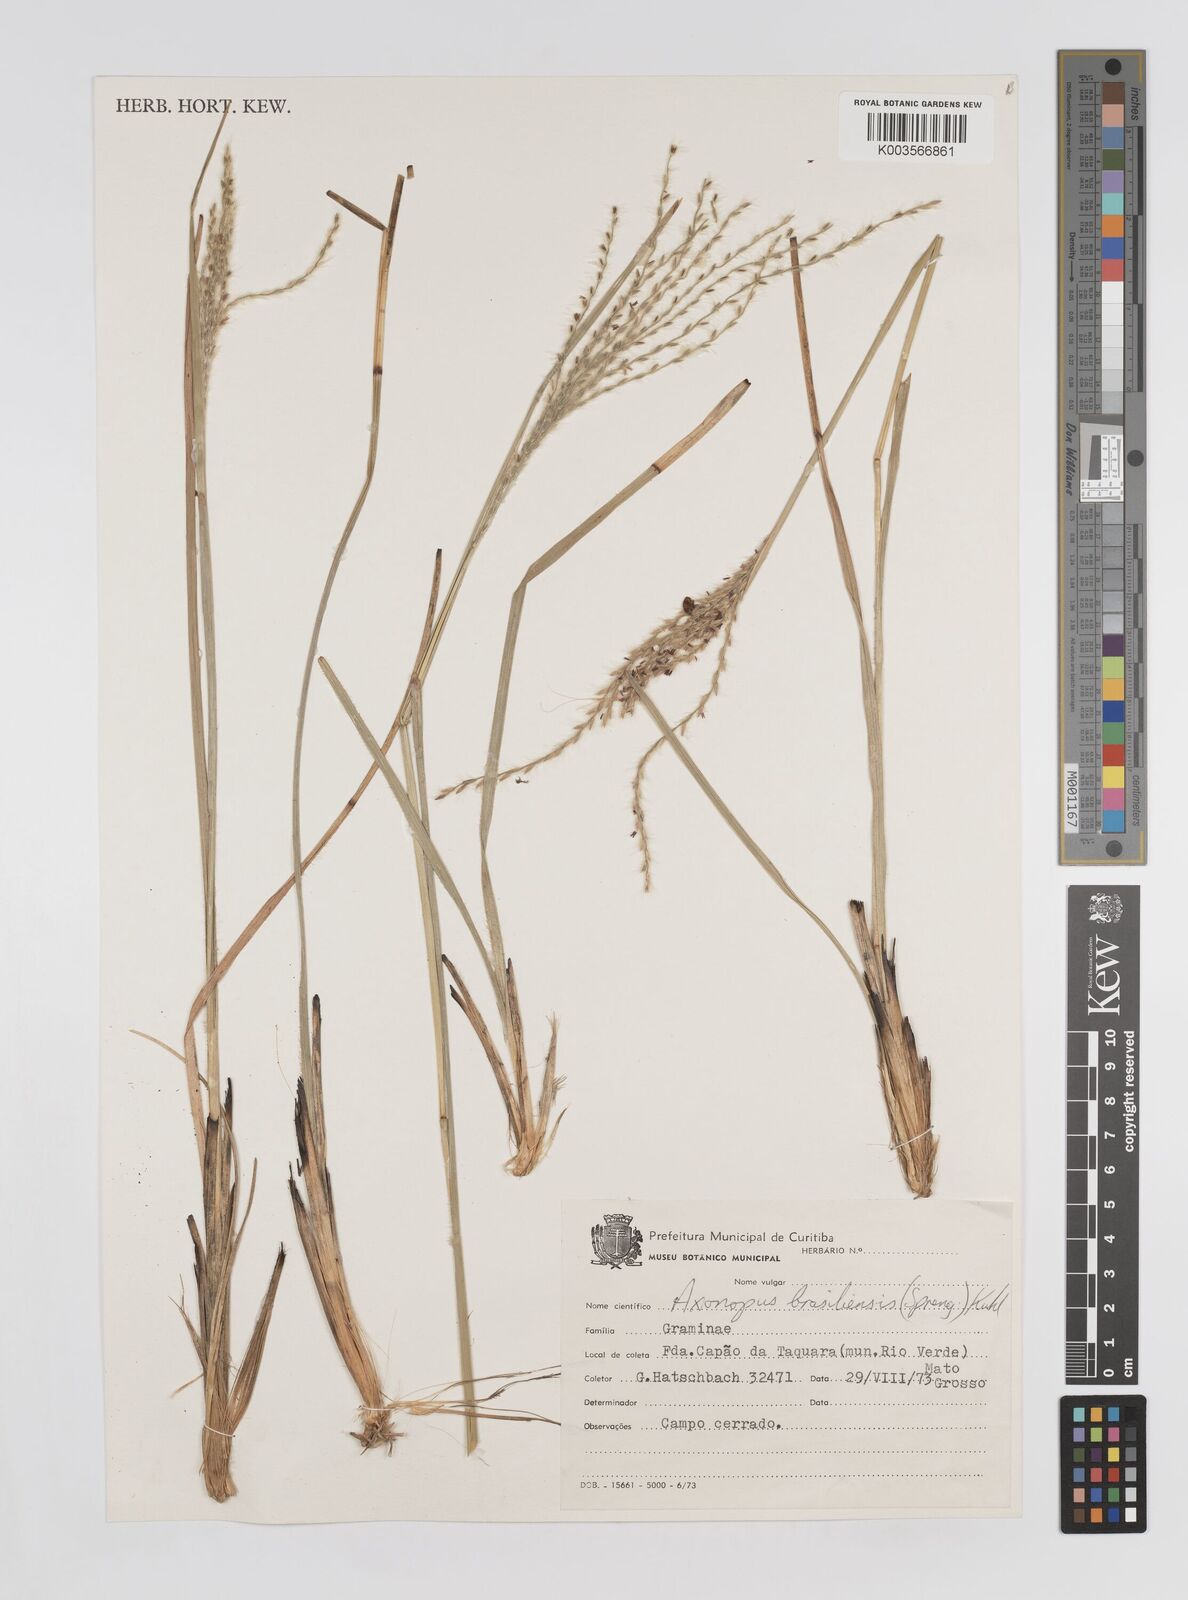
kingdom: Plantae
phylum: Tracheophyta
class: Liliopsida
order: Poales
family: Poaceae
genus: Axonopus
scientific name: Axonopus brasiliensis
